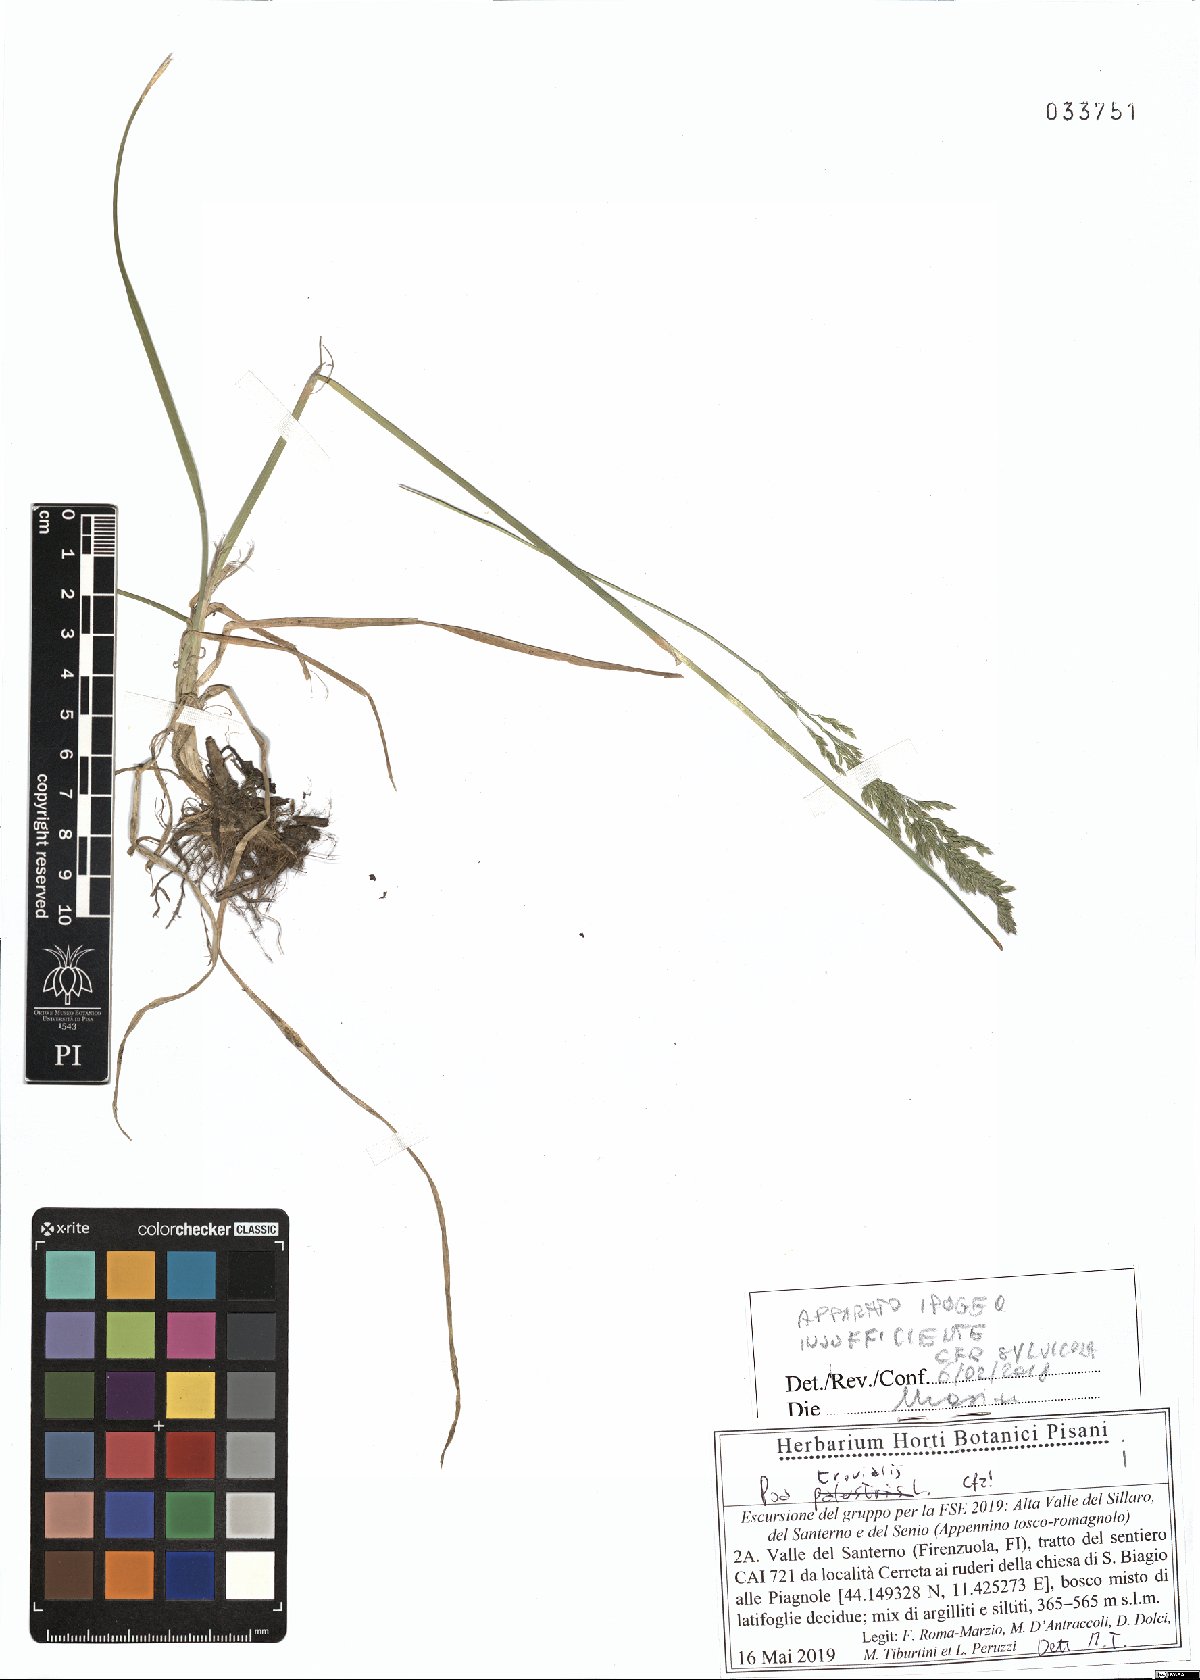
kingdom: Plantae
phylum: Tracheophyta
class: Liliopsida
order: Poales
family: Poaceae
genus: Poa
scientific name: Poa trivialis
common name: Rough bluegrass
